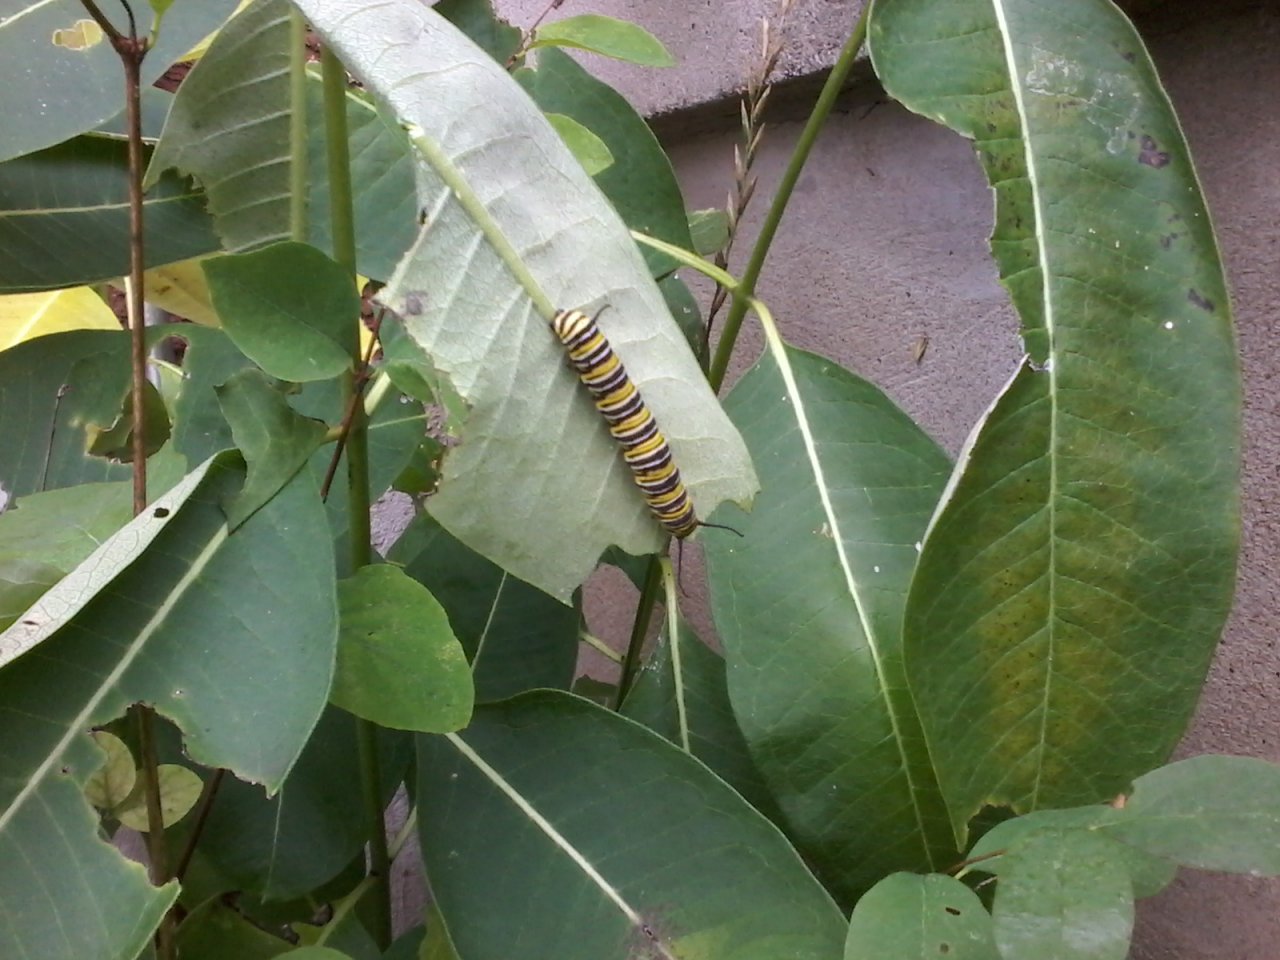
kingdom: Animalia
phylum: Arthropoda
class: Insecta
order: Lepidoptera
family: Nymphalidae
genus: Danaus
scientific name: Danaus plexippus
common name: Monarch
